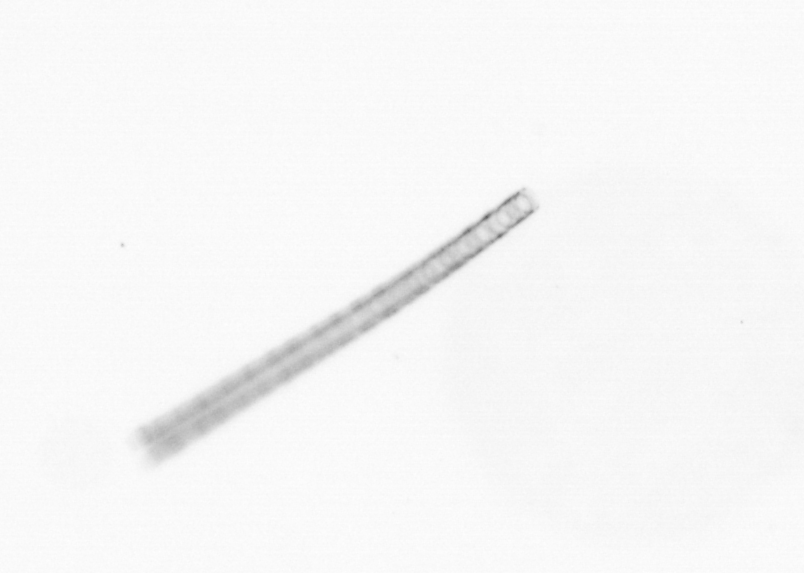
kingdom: Chromista
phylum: Ochrophyta
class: Bacillariophyceae
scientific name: Bacillariophyceae
